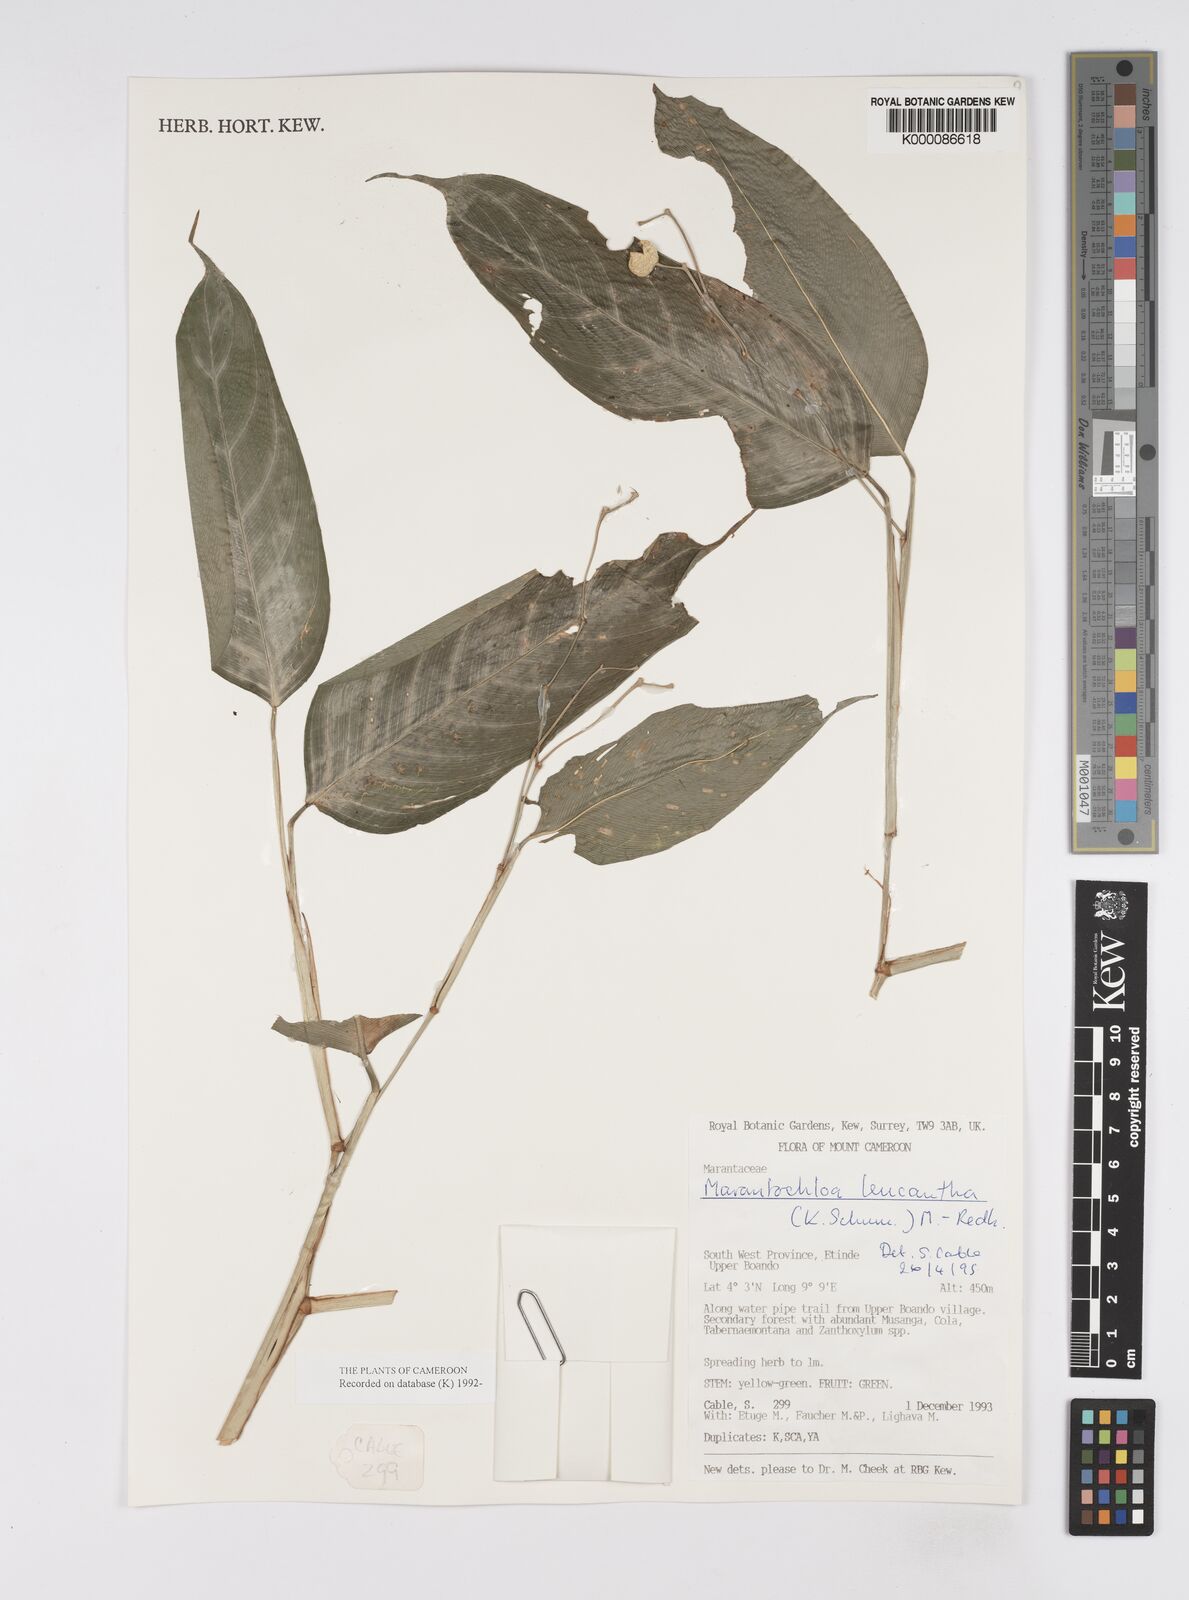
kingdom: Plantae
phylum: Tracheophyta
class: Liliopsida
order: Zingiberales
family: Marantaceae
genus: Marantochloa
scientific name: Marantochloa leucantha
